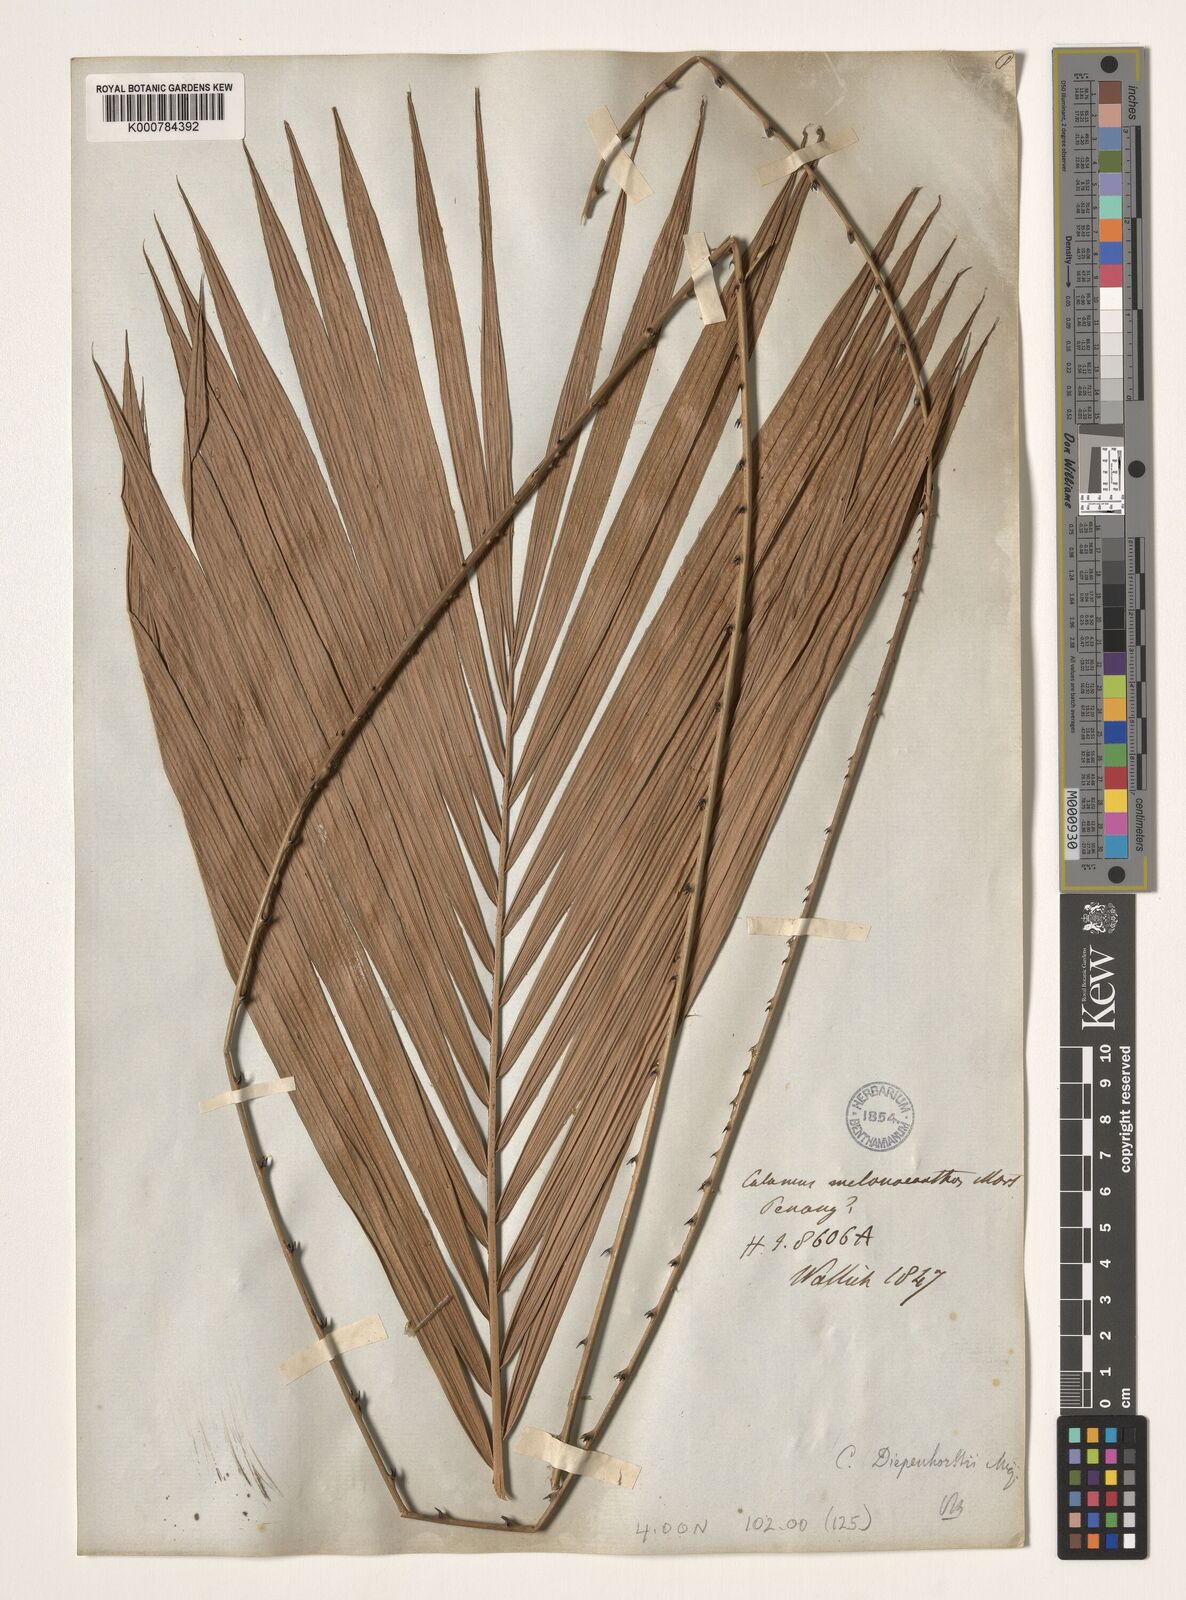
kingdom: Plantae
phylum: Tracheophyta
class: Liliopsida
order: Arecales
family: Arecaceae
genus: Calamus
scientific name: Calamus diepenhorstii
